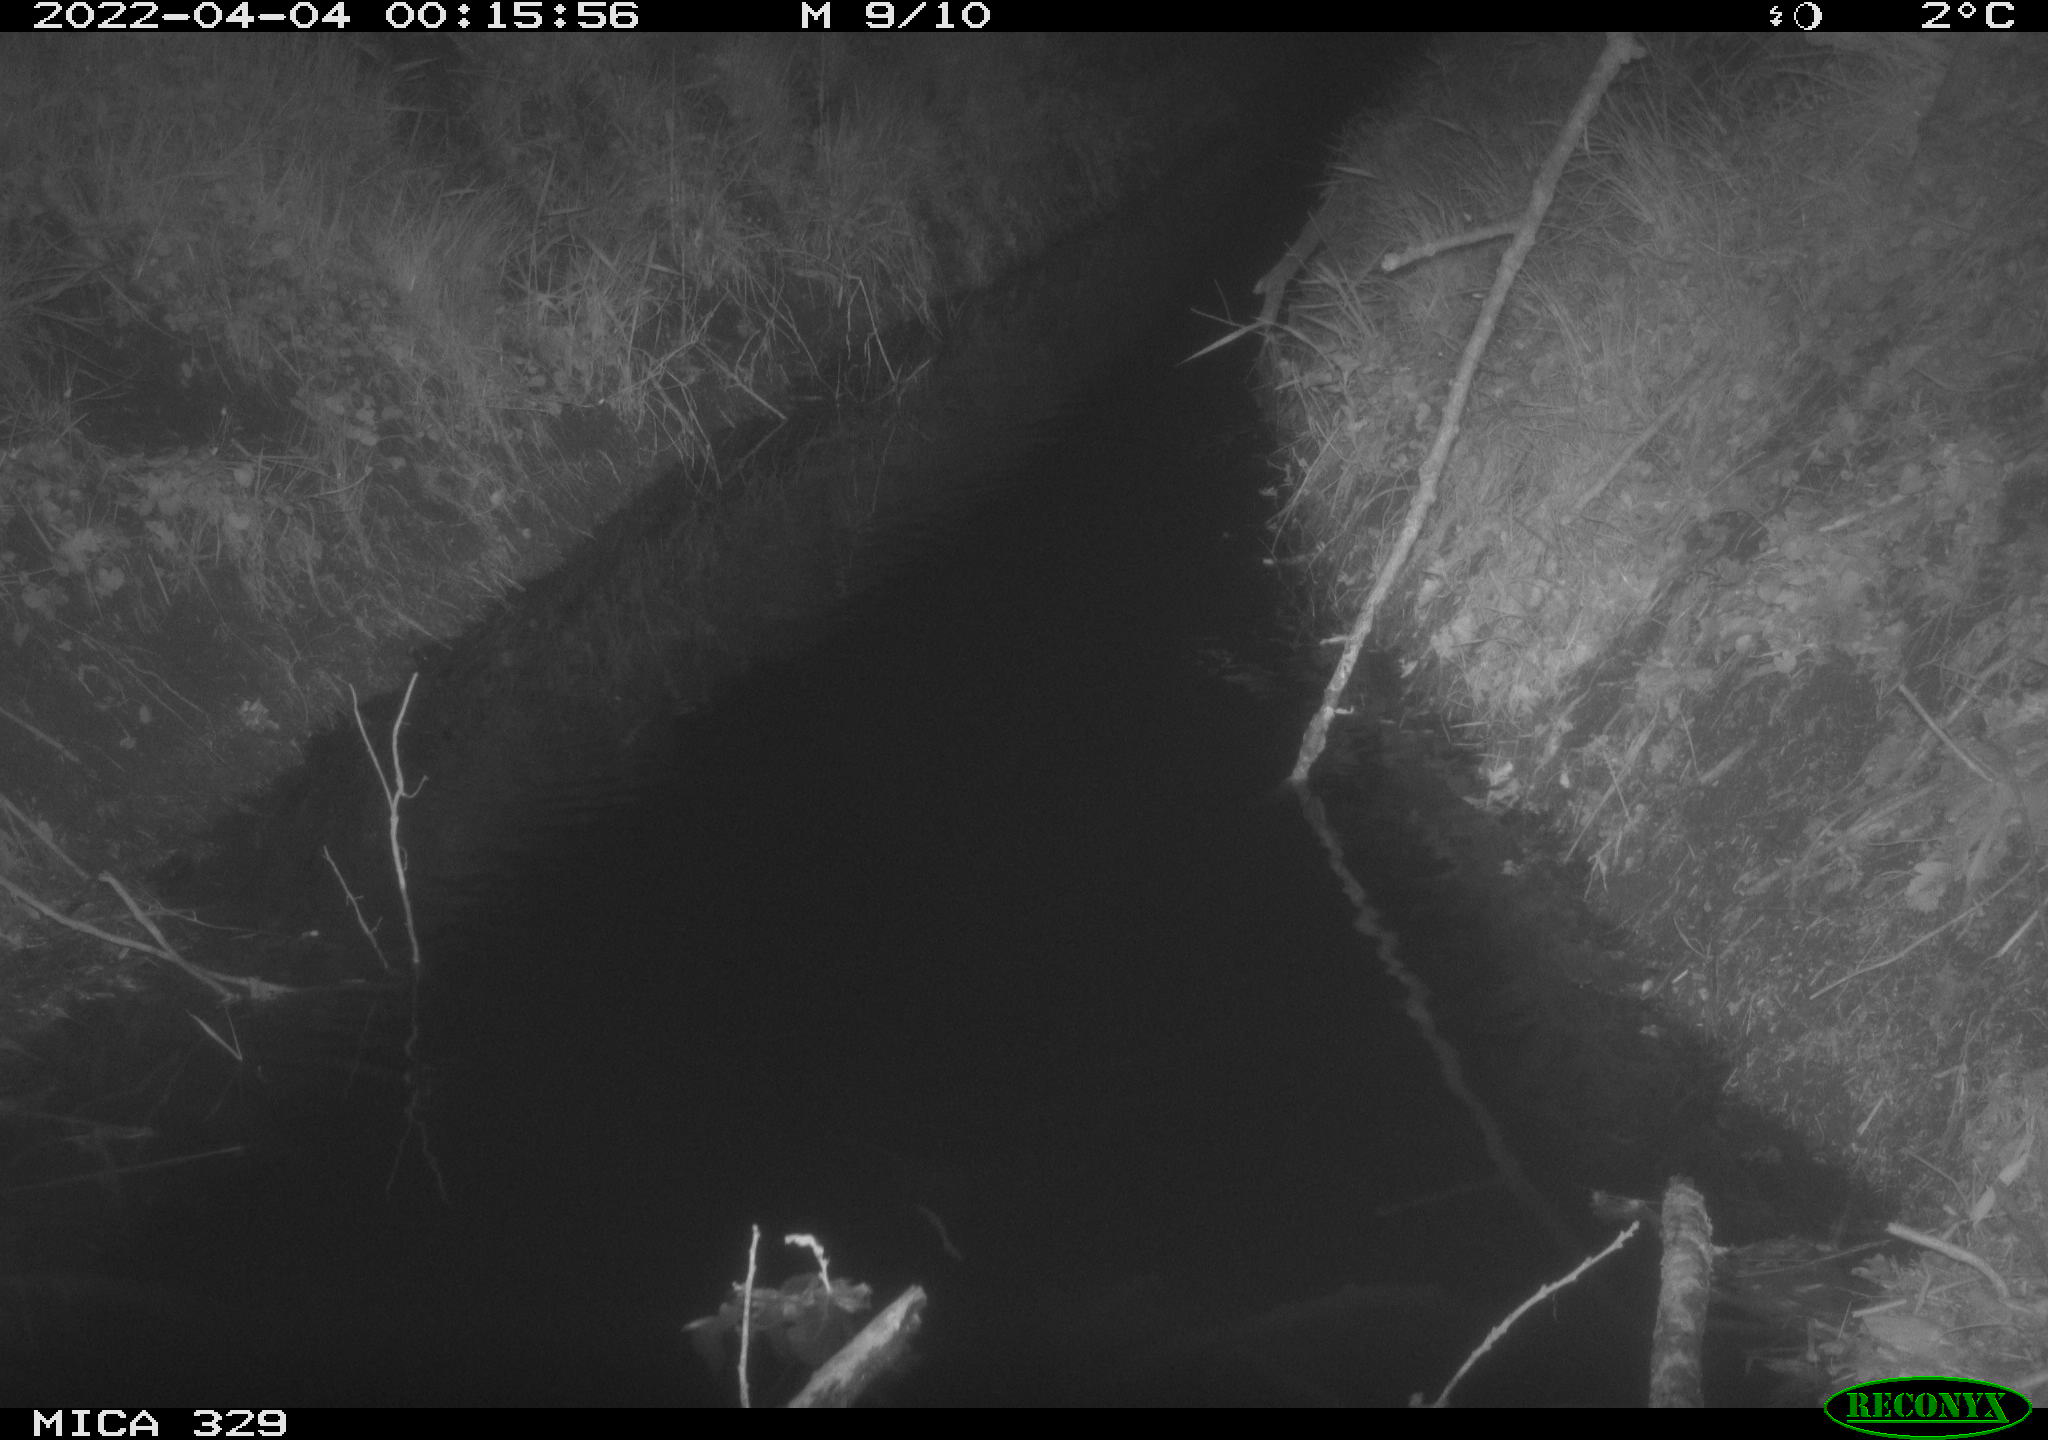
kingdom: Animalia
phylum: Chordata
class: Mammalia
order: Rodentia
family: Muridae
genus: Rattus
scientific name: Rattus norvegicus
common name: Brown rat
